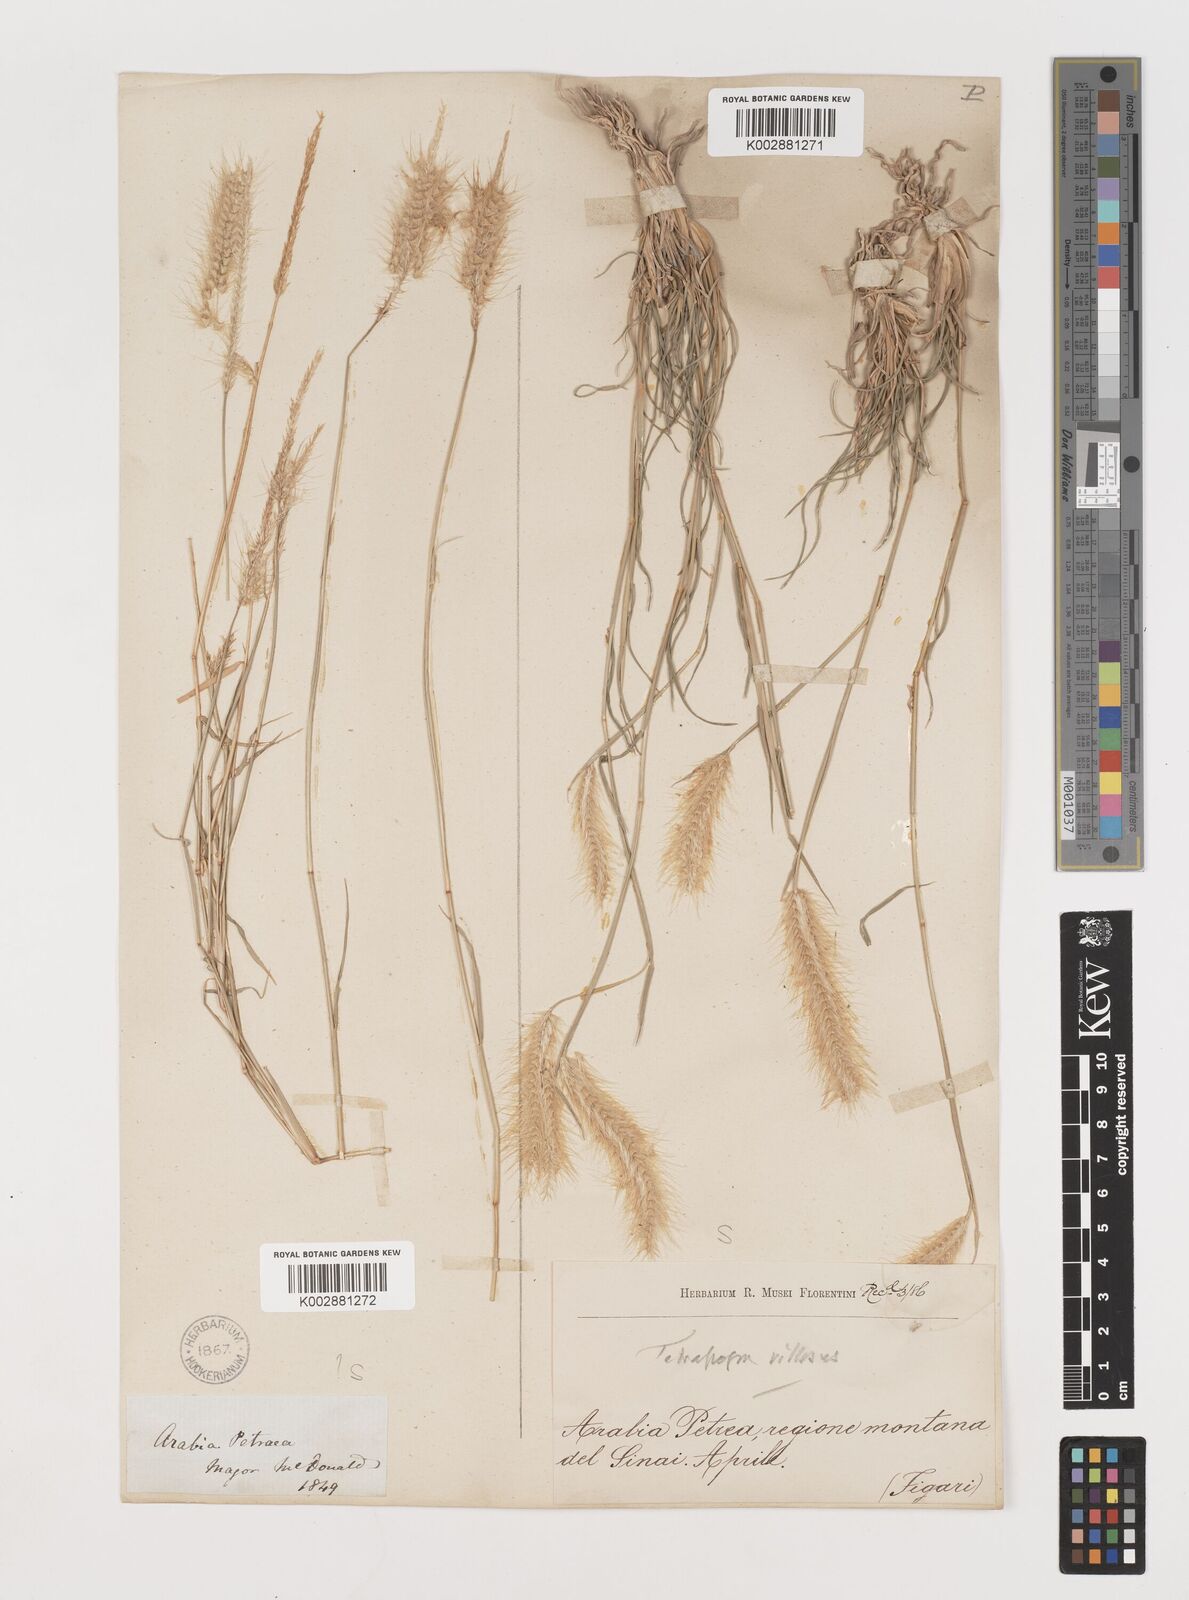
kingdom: Plantae
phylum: Tracheophyta
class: Liliopsida
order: Poales
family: Poaceae
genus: Tetrapogon
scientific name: Tetrapogon villosus
